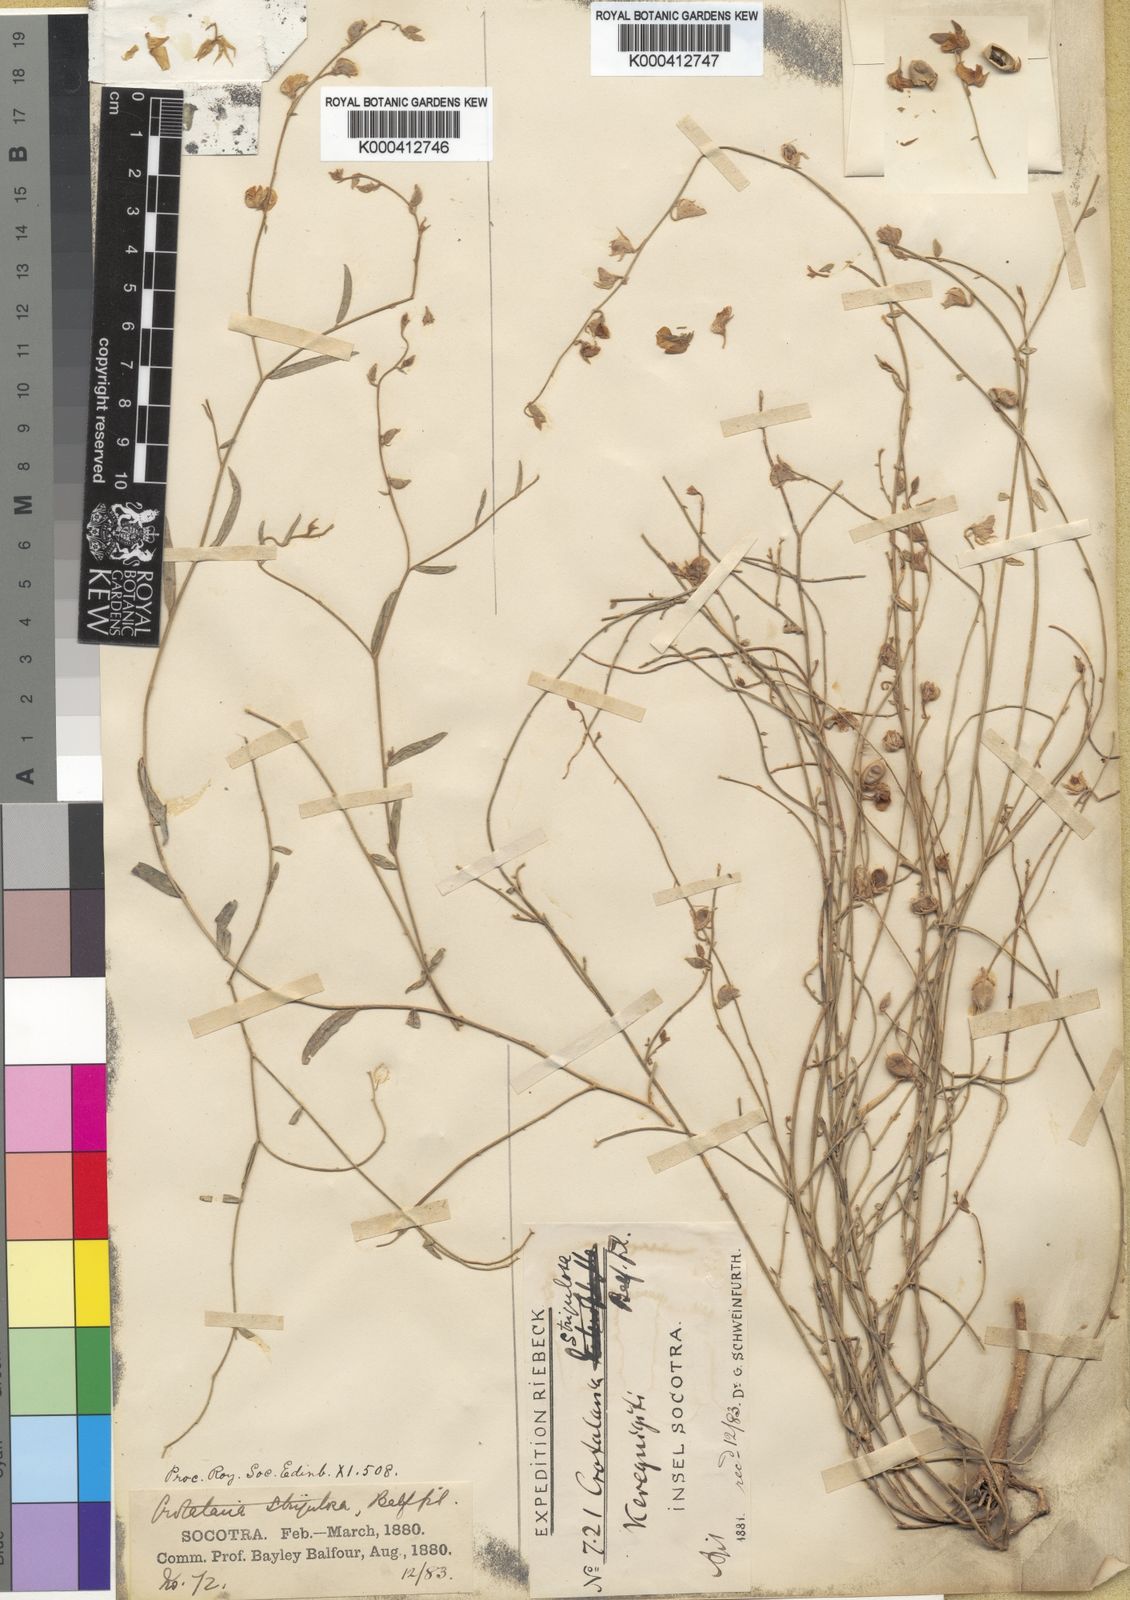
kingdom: Plantae
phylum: Tracheophyta
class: Magnoliopsida
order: Fabales
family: Fabaceae
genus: Crotalaria
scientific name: Crotalaria strigulosa
